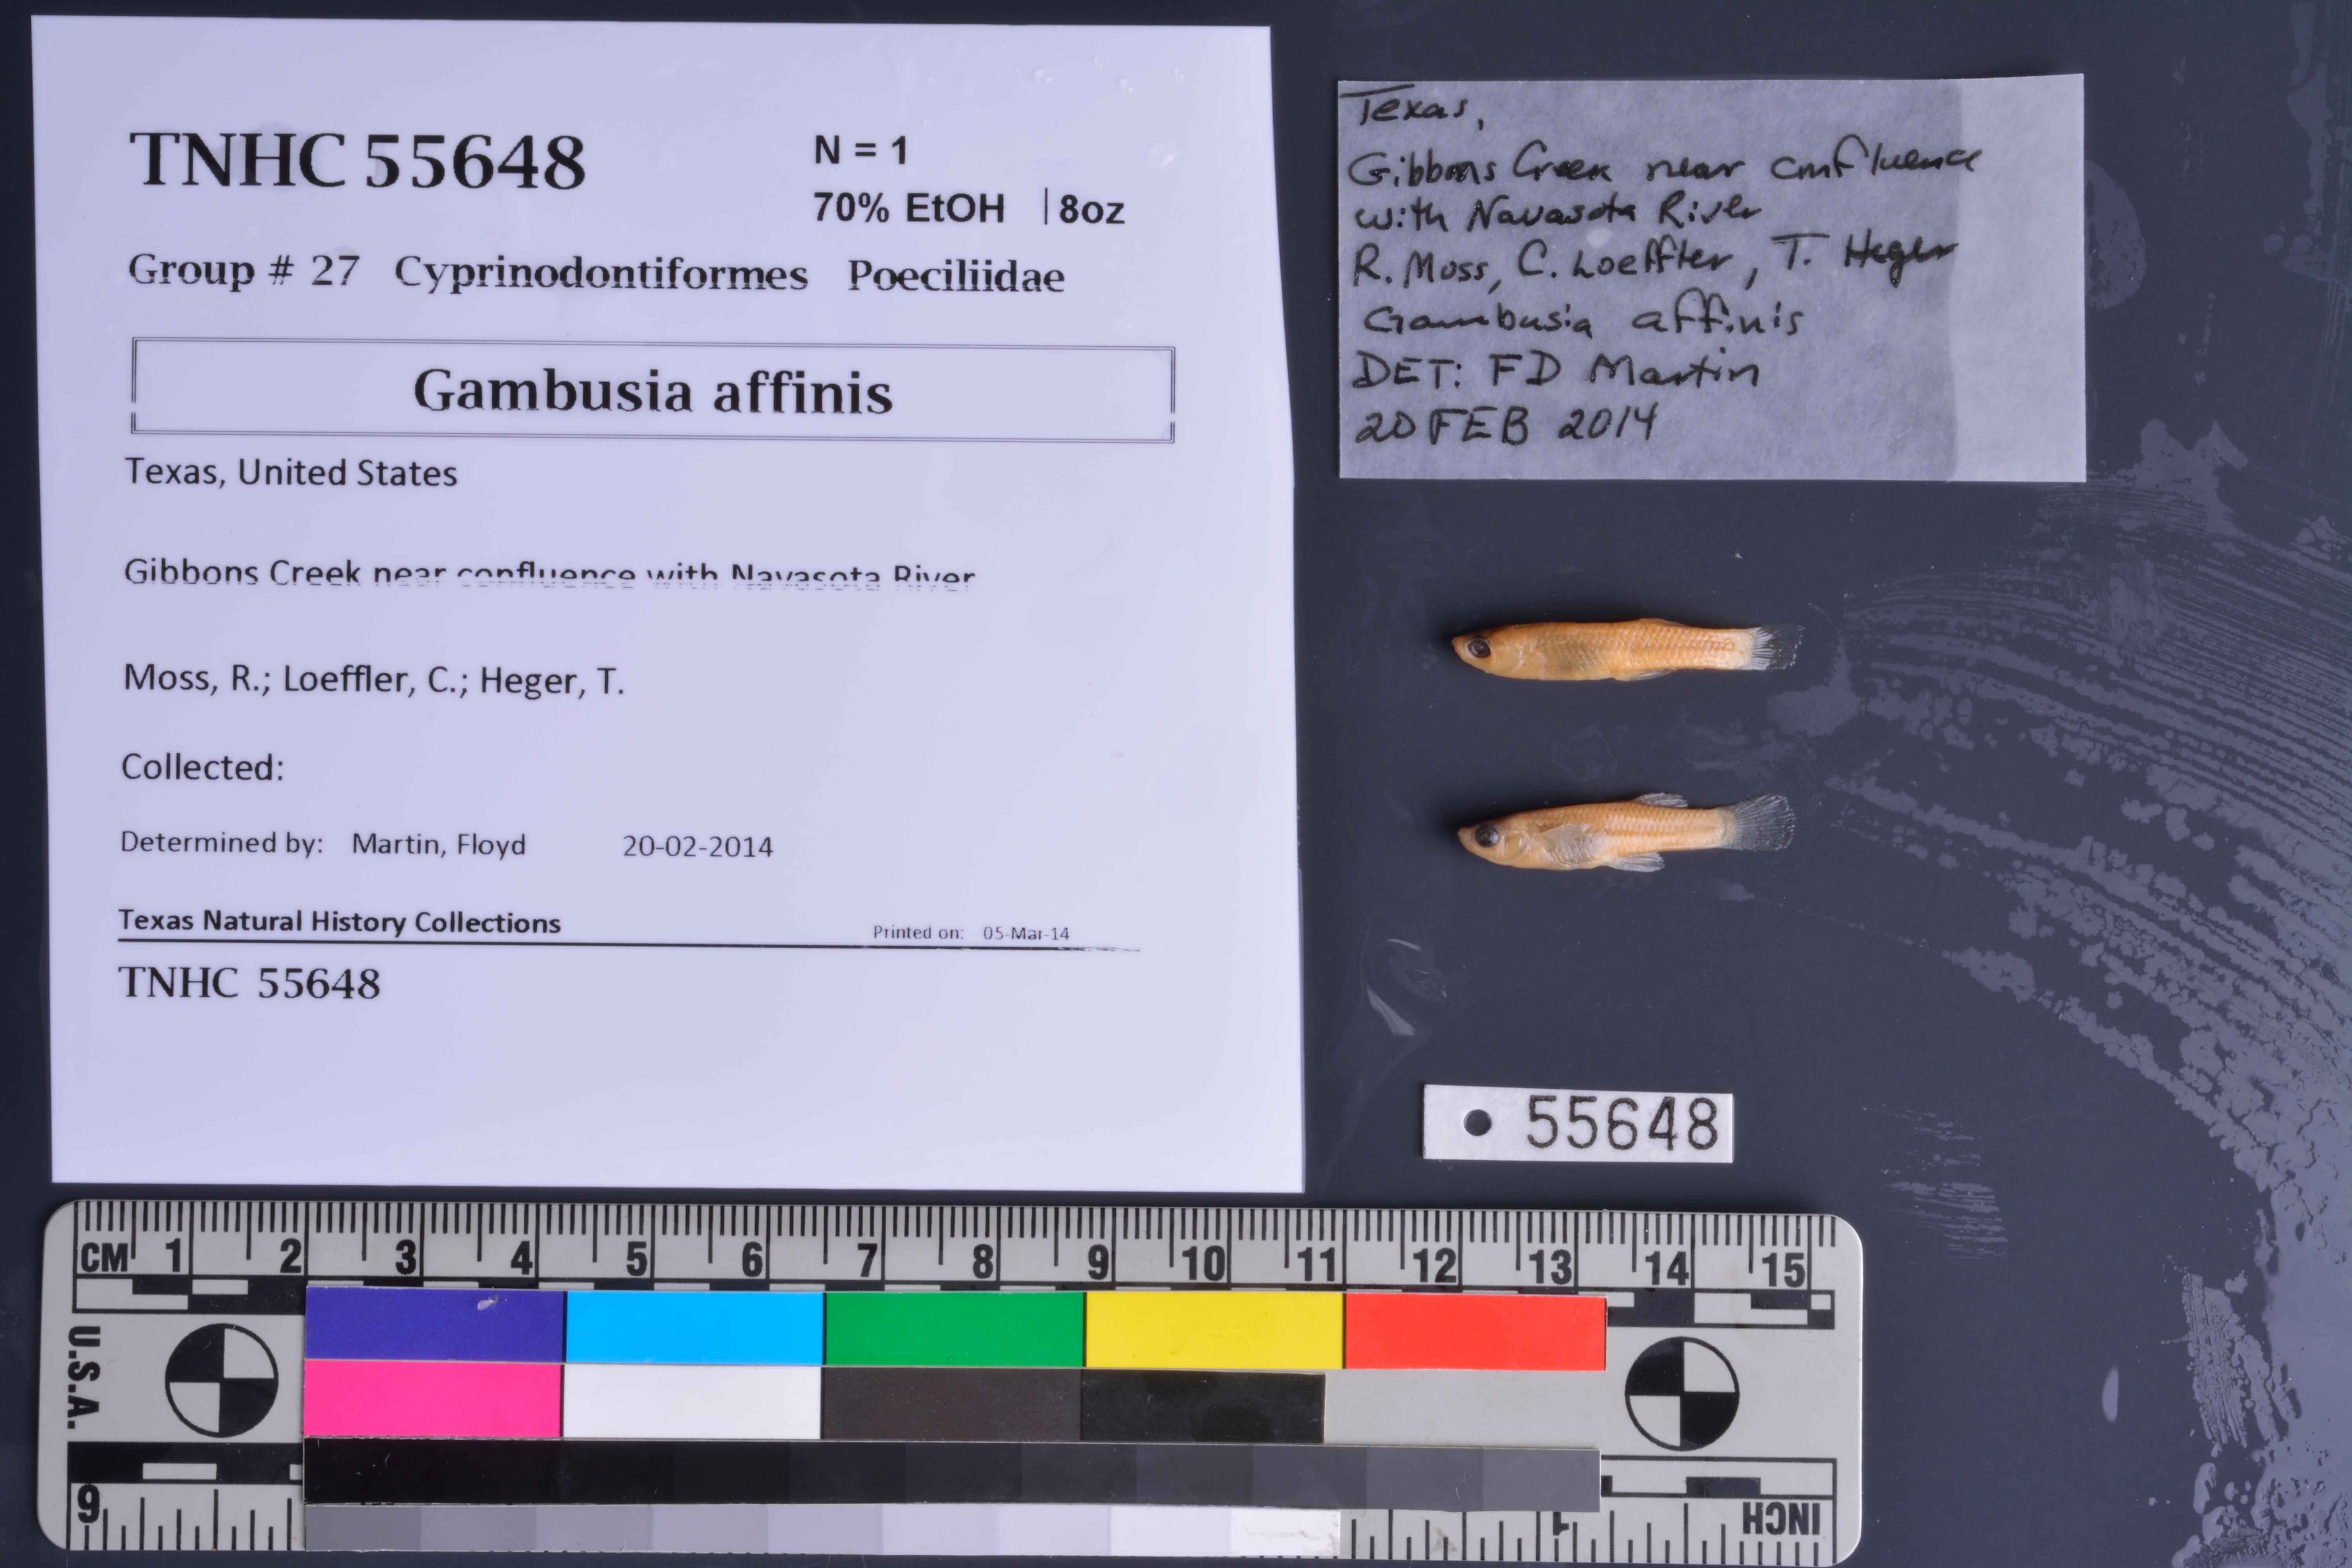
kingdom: Animalia
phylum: Chordata
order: Cyprinodontiformes
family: Poeciliidae
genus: Gambusia
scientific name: Gambusia affinis
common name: Mosquitofish
